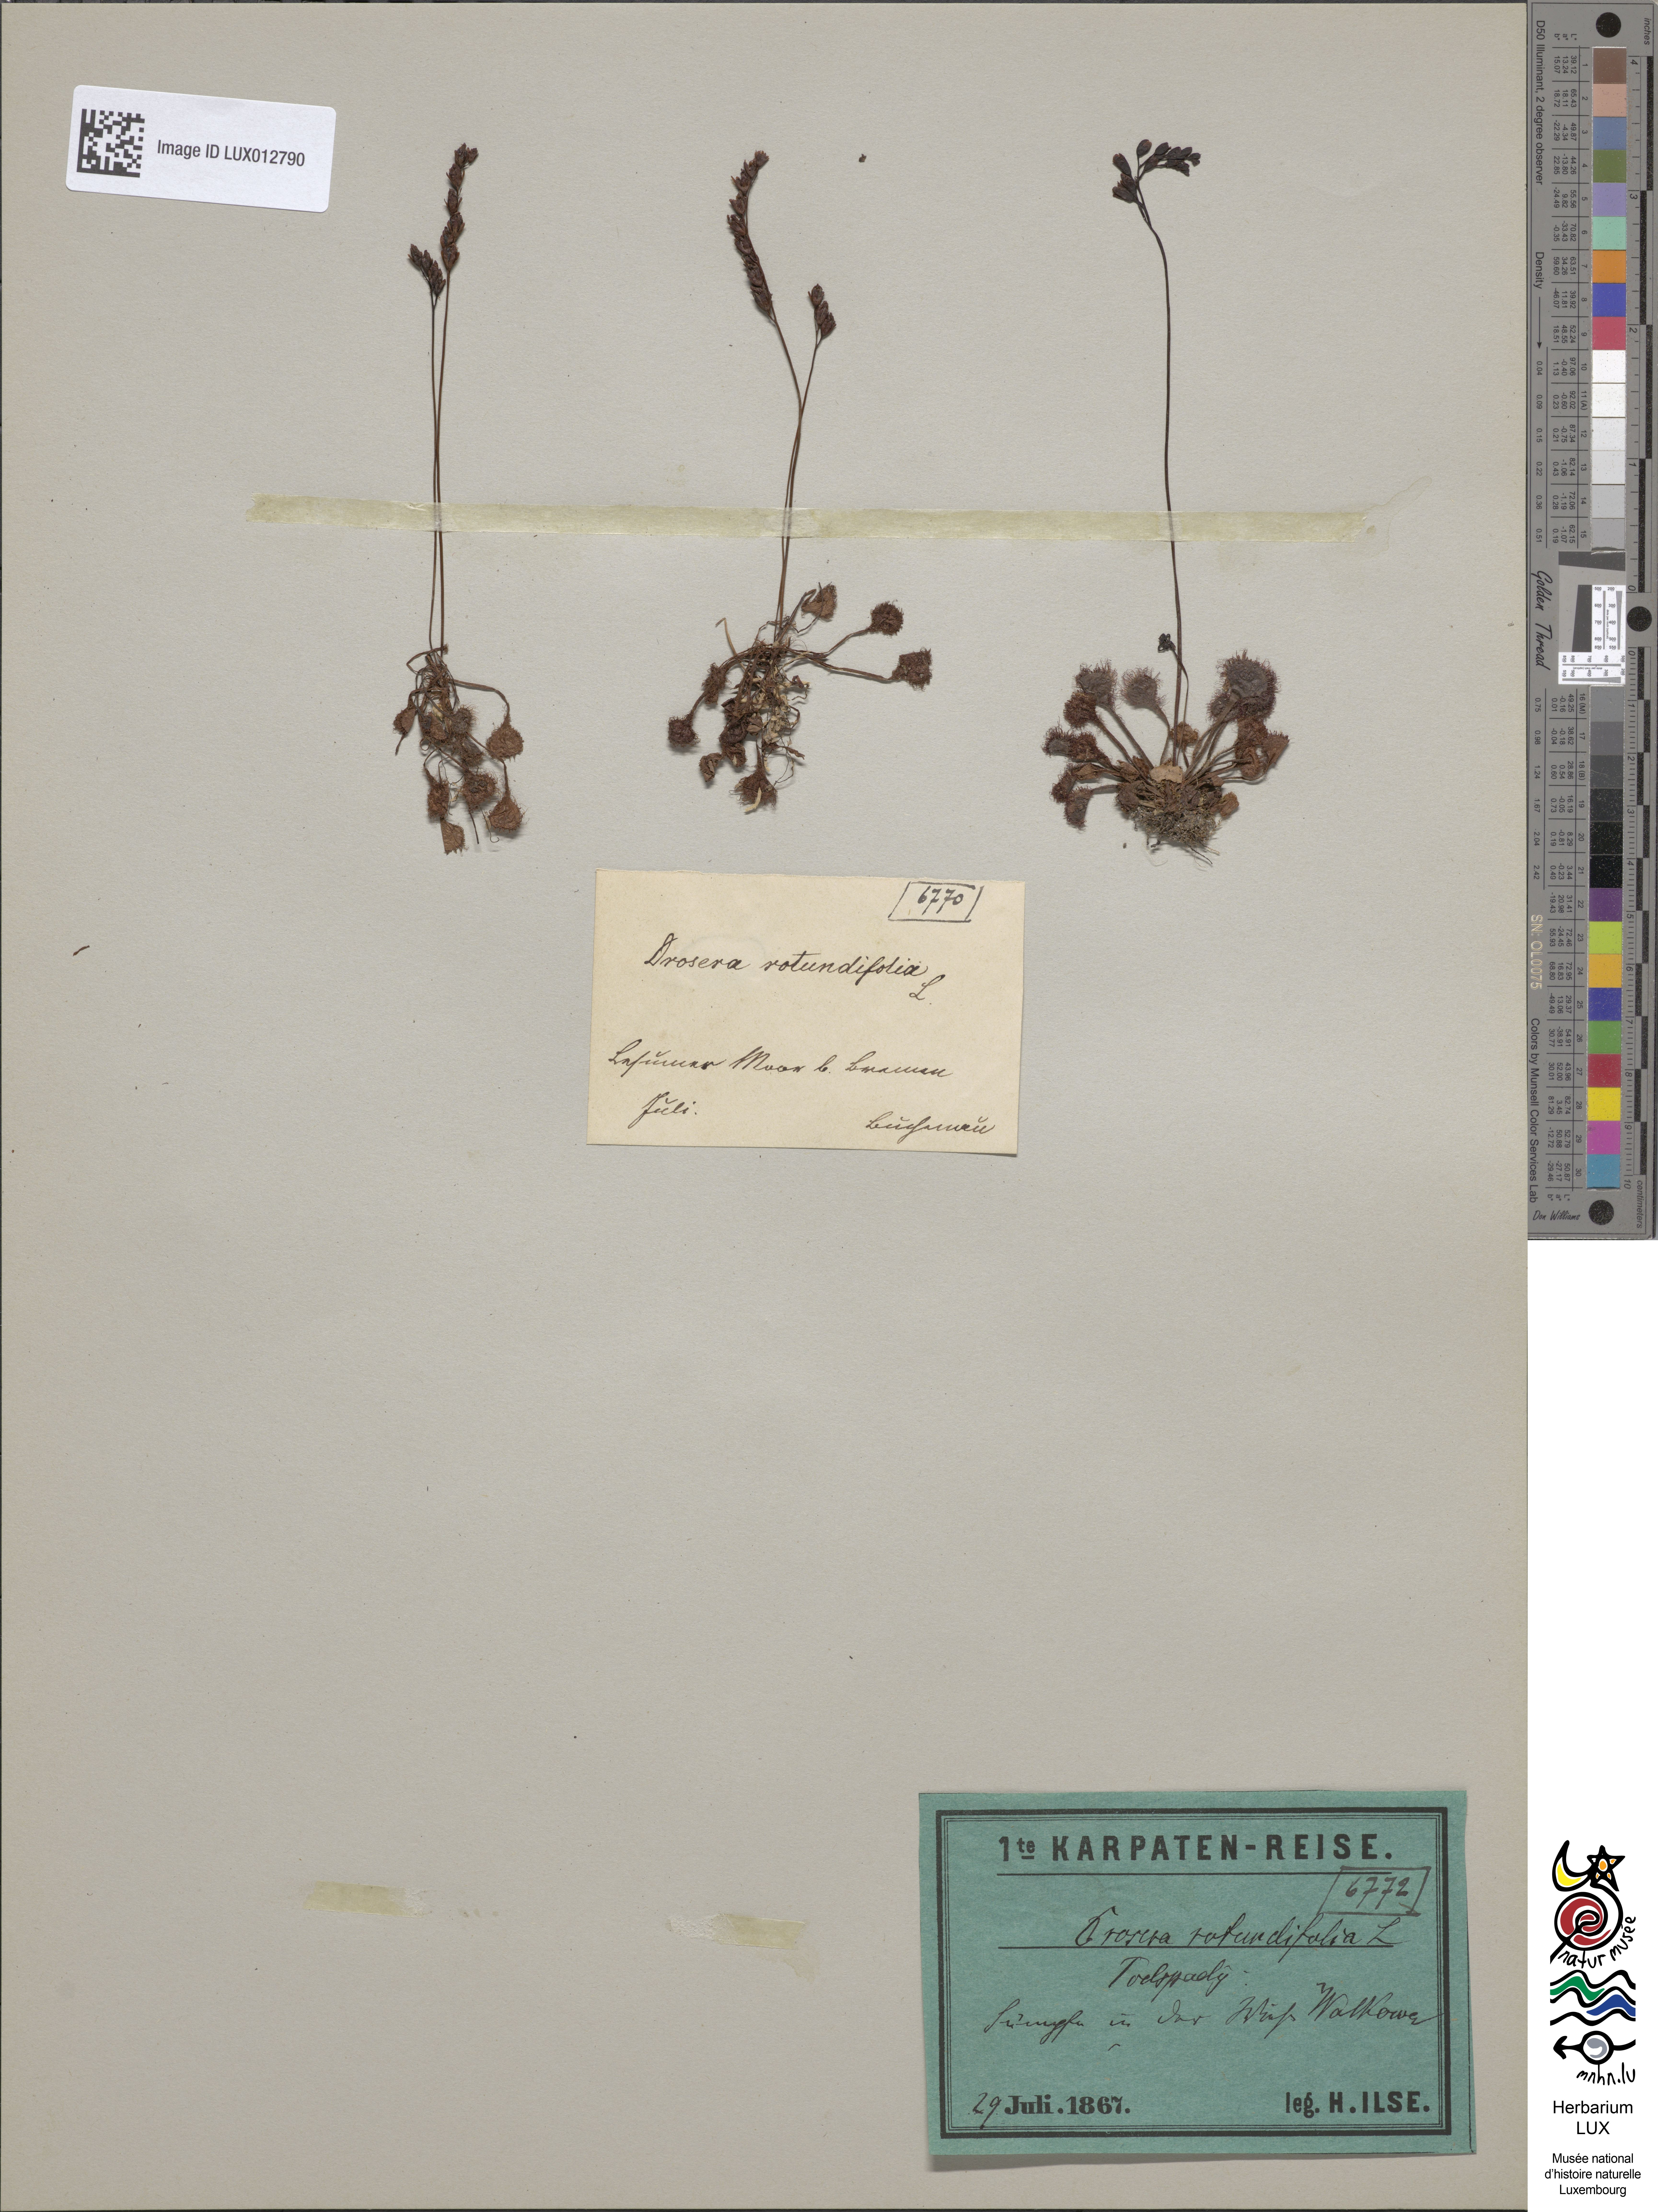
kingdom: Plantae
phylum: Tracheophyta
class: Magnoliopsida
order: Caryophyllales
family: Droseraceae
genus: Drosera
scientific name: Drosera rotundifolia
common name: Round-leaved sundew
